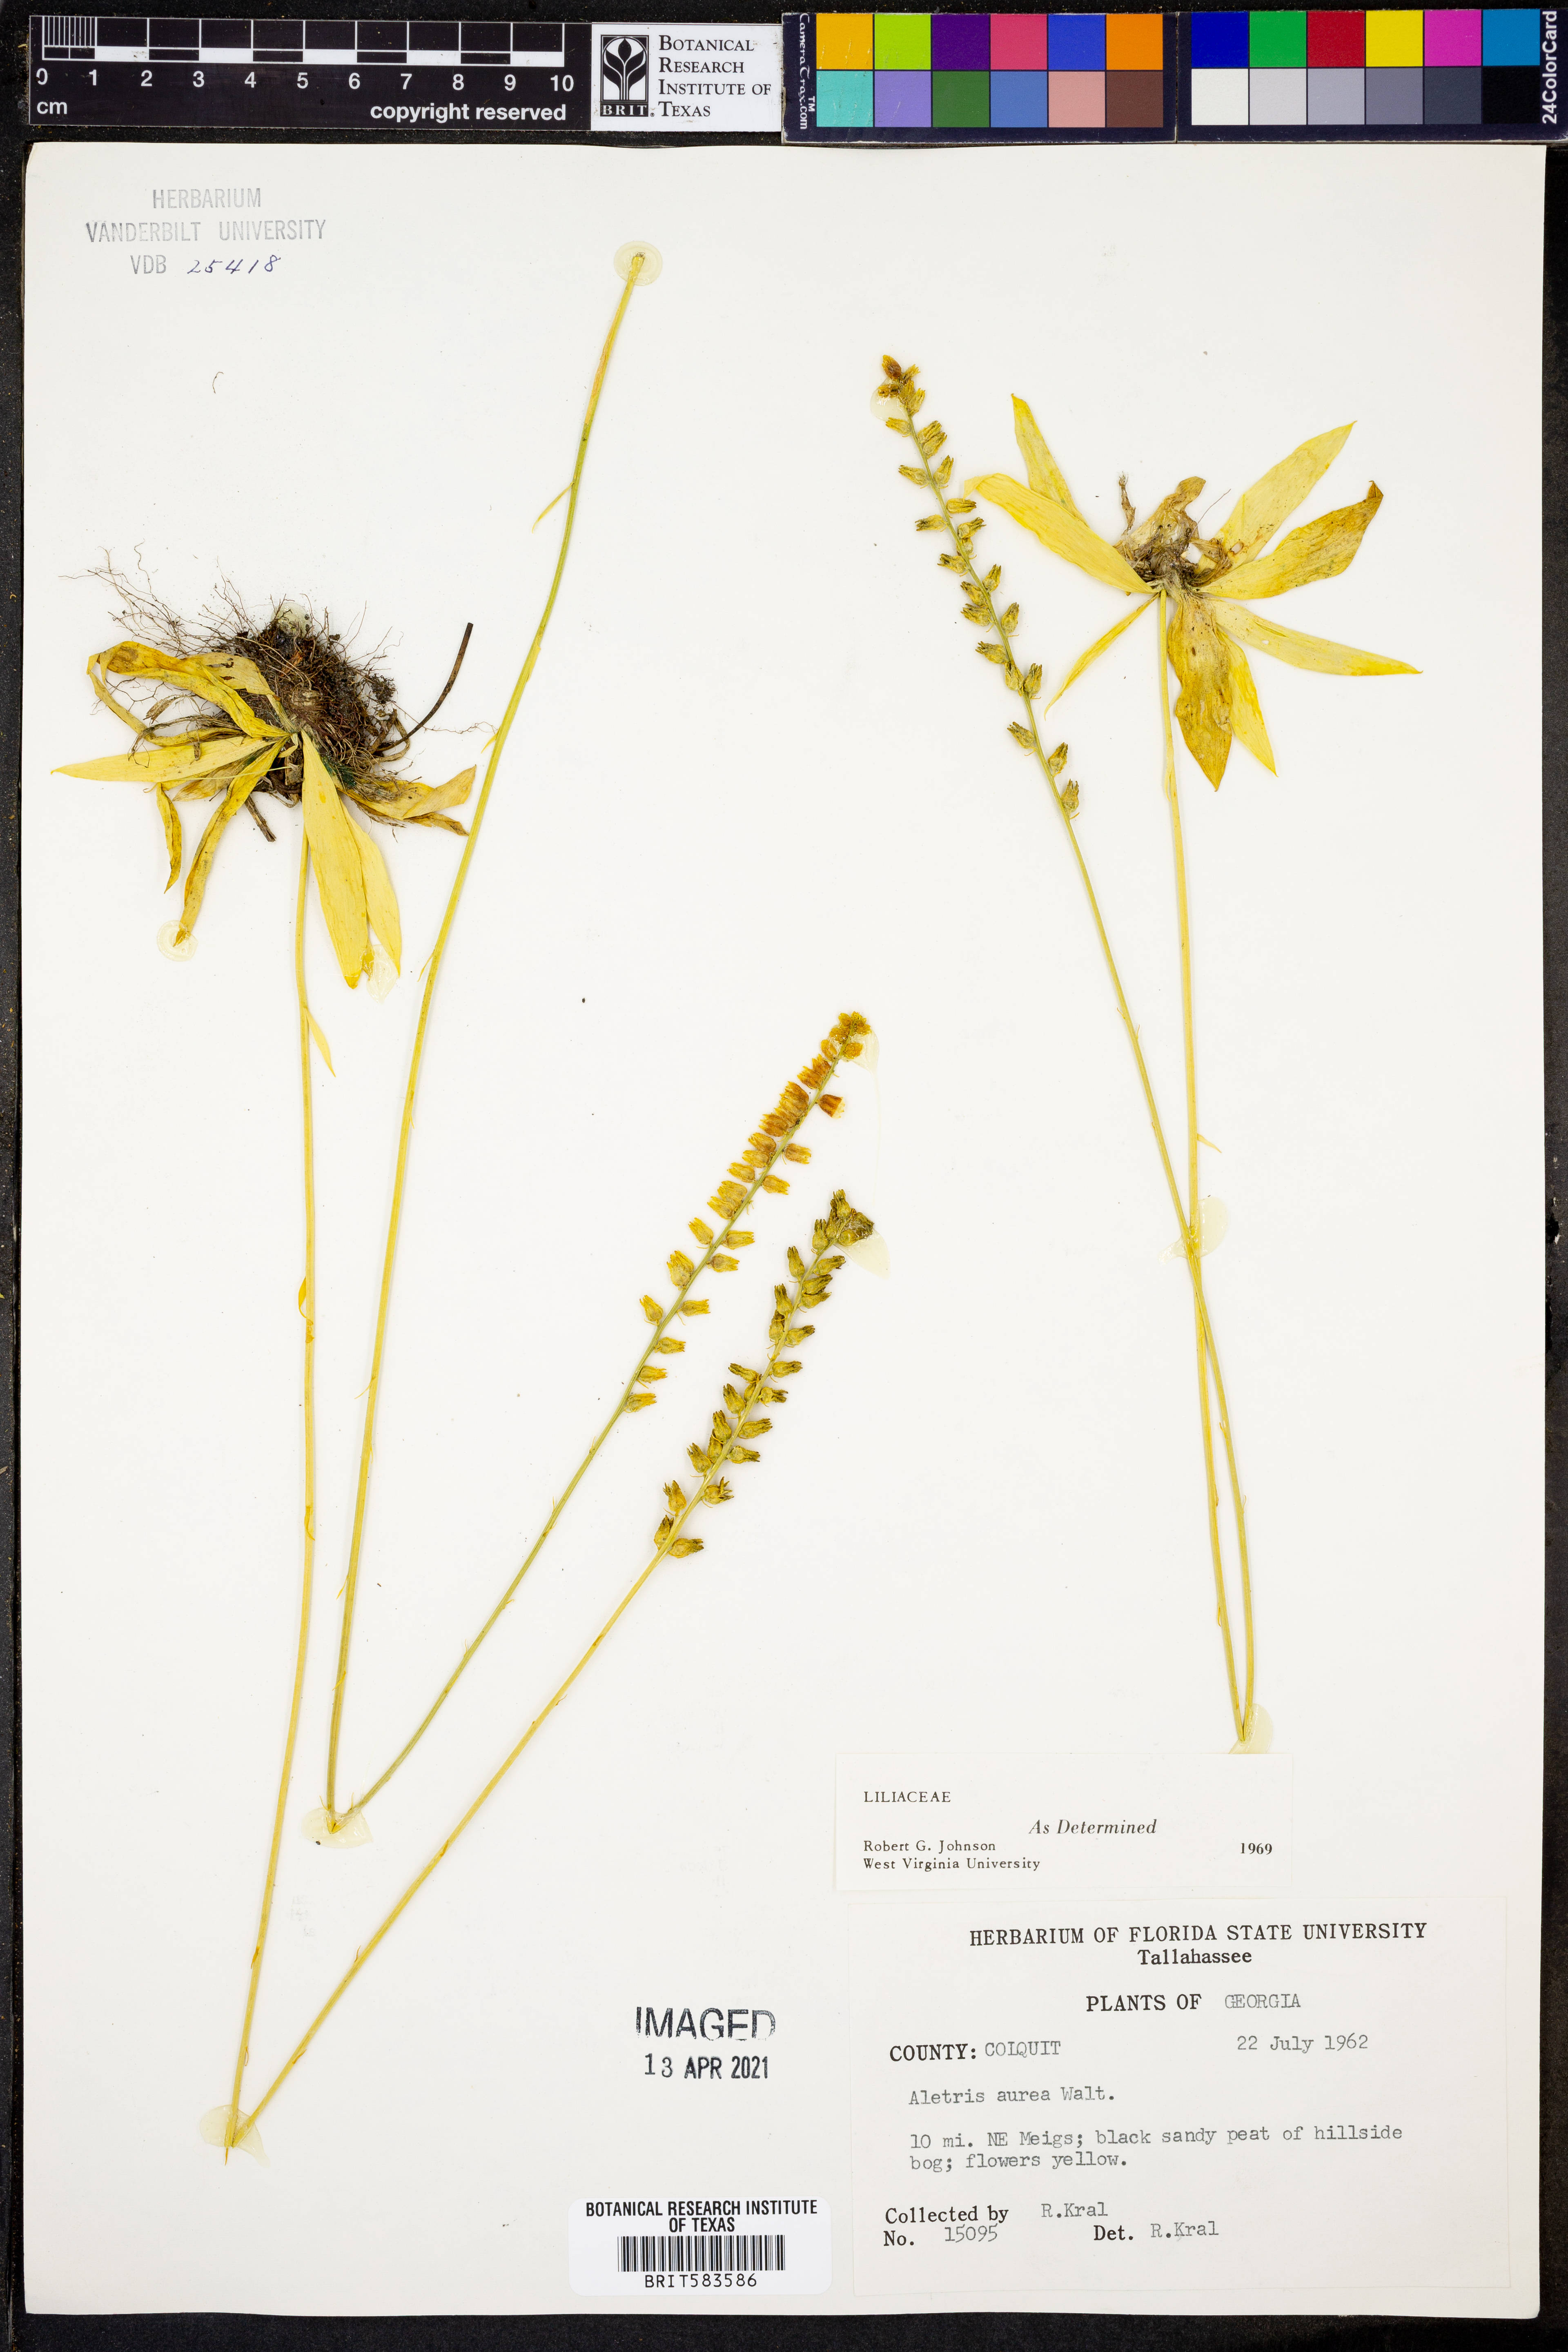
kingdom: Plantae
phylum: Tracheophyta
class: Liliopsida
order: Dioscoreales
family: Nartheciaceae
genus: Aletris
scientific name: Aletris aurea
